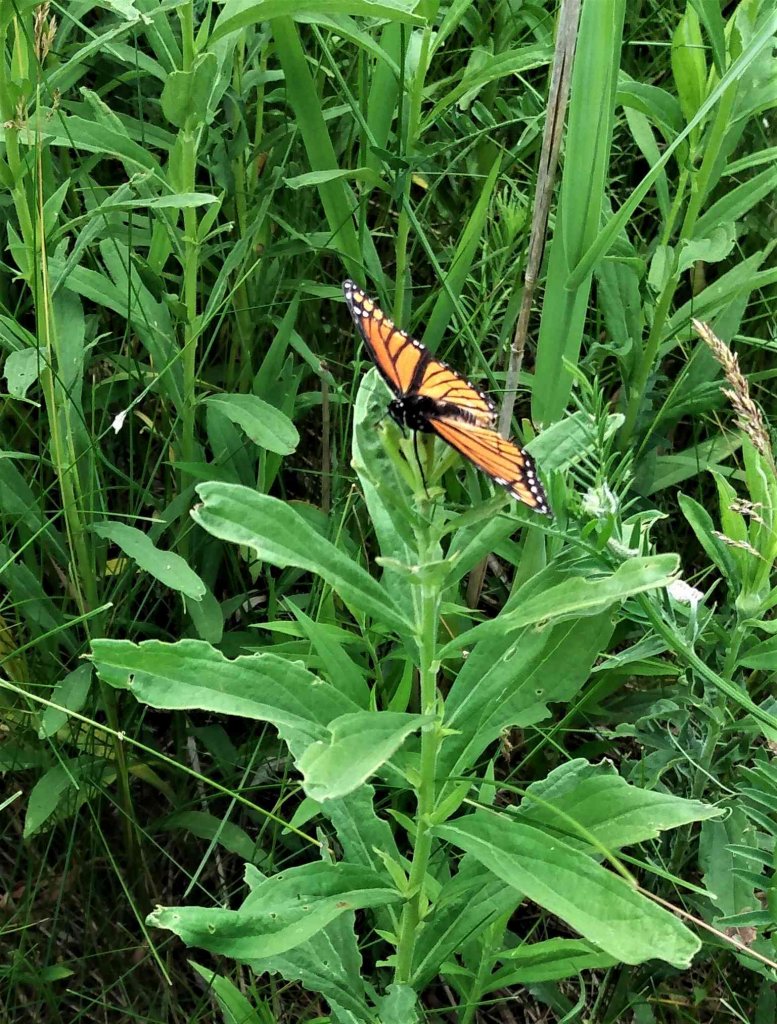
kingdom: Animalia
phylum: Arthropoda
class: Insecta
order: Lepidoptera
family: Nymphalidae
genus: Limenitis
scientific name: Limenitis archippus
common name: Viceroy
